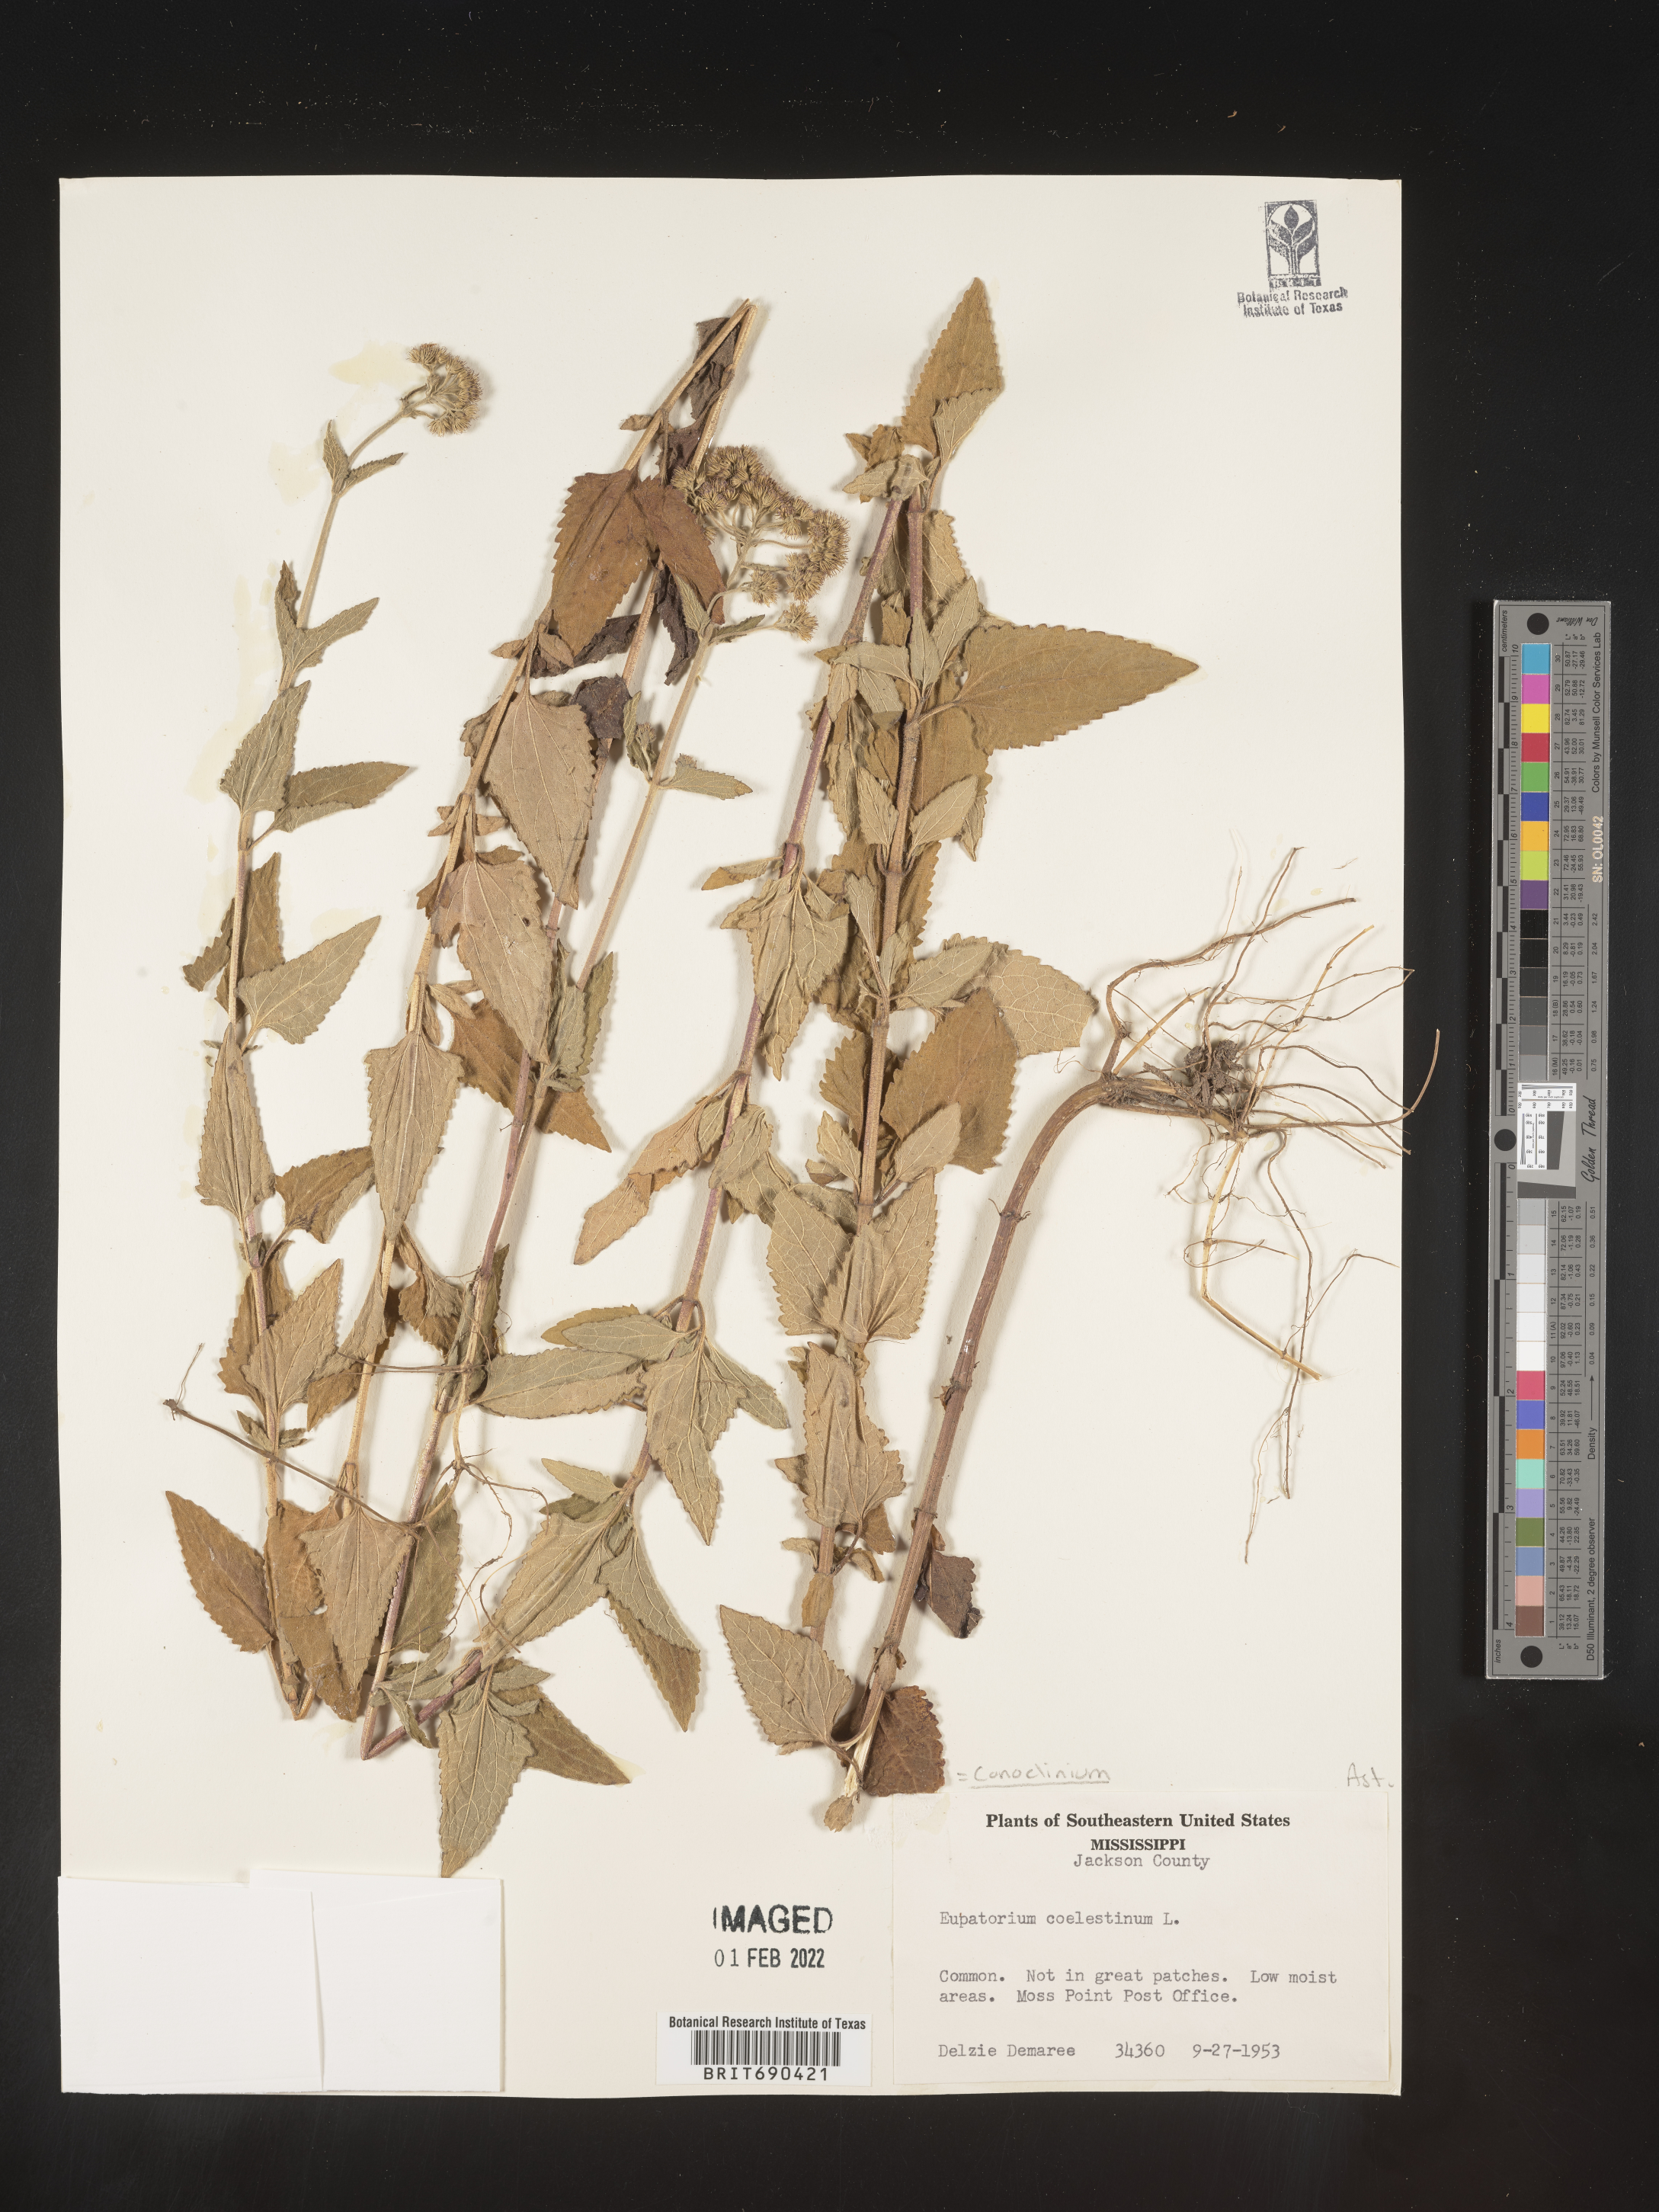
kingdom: Plantae
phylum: Tracheophyta
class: Magnoliopsida
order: Asterales
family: Asteraceae
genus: Conoclinium
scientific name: Conoclinium coelestinum
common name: Blue mistflower
